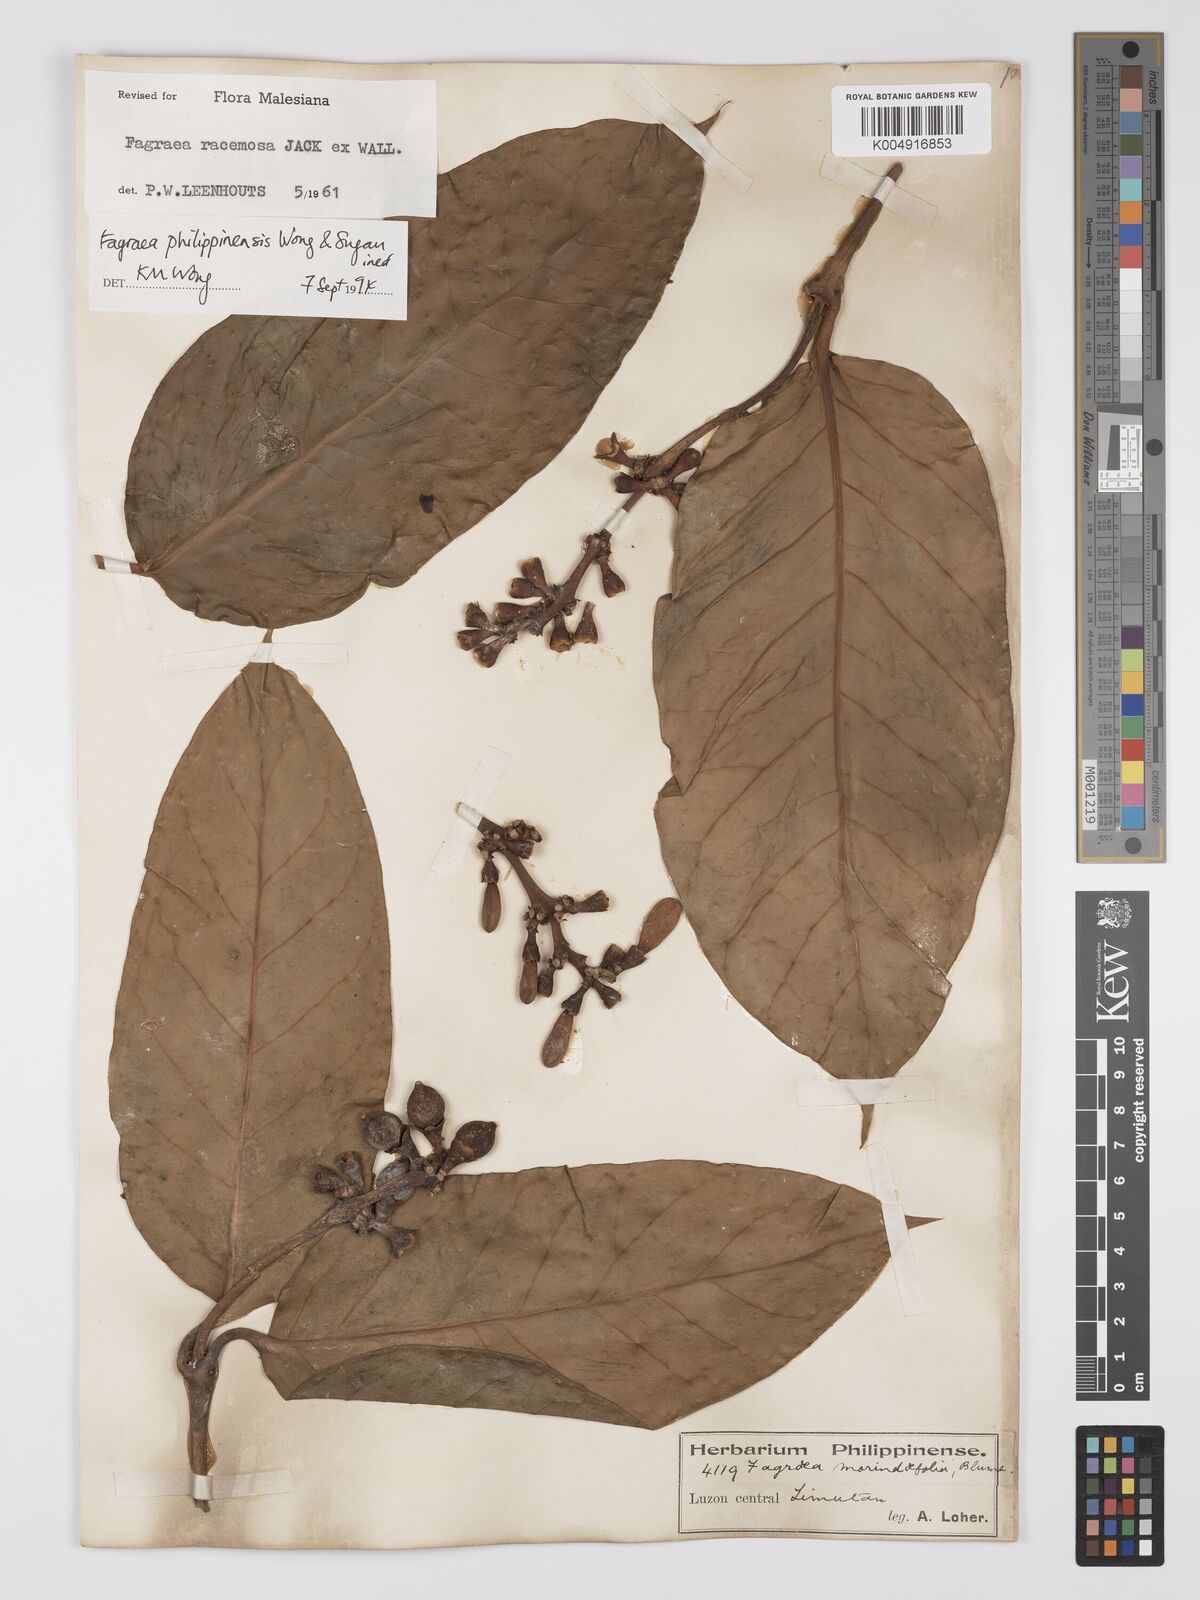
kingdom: Plantae
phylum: Tracheophyta
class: Magnoliopsida
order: Gentianales
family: Gentianaceae
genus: Utania
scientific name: Utania racemosa
